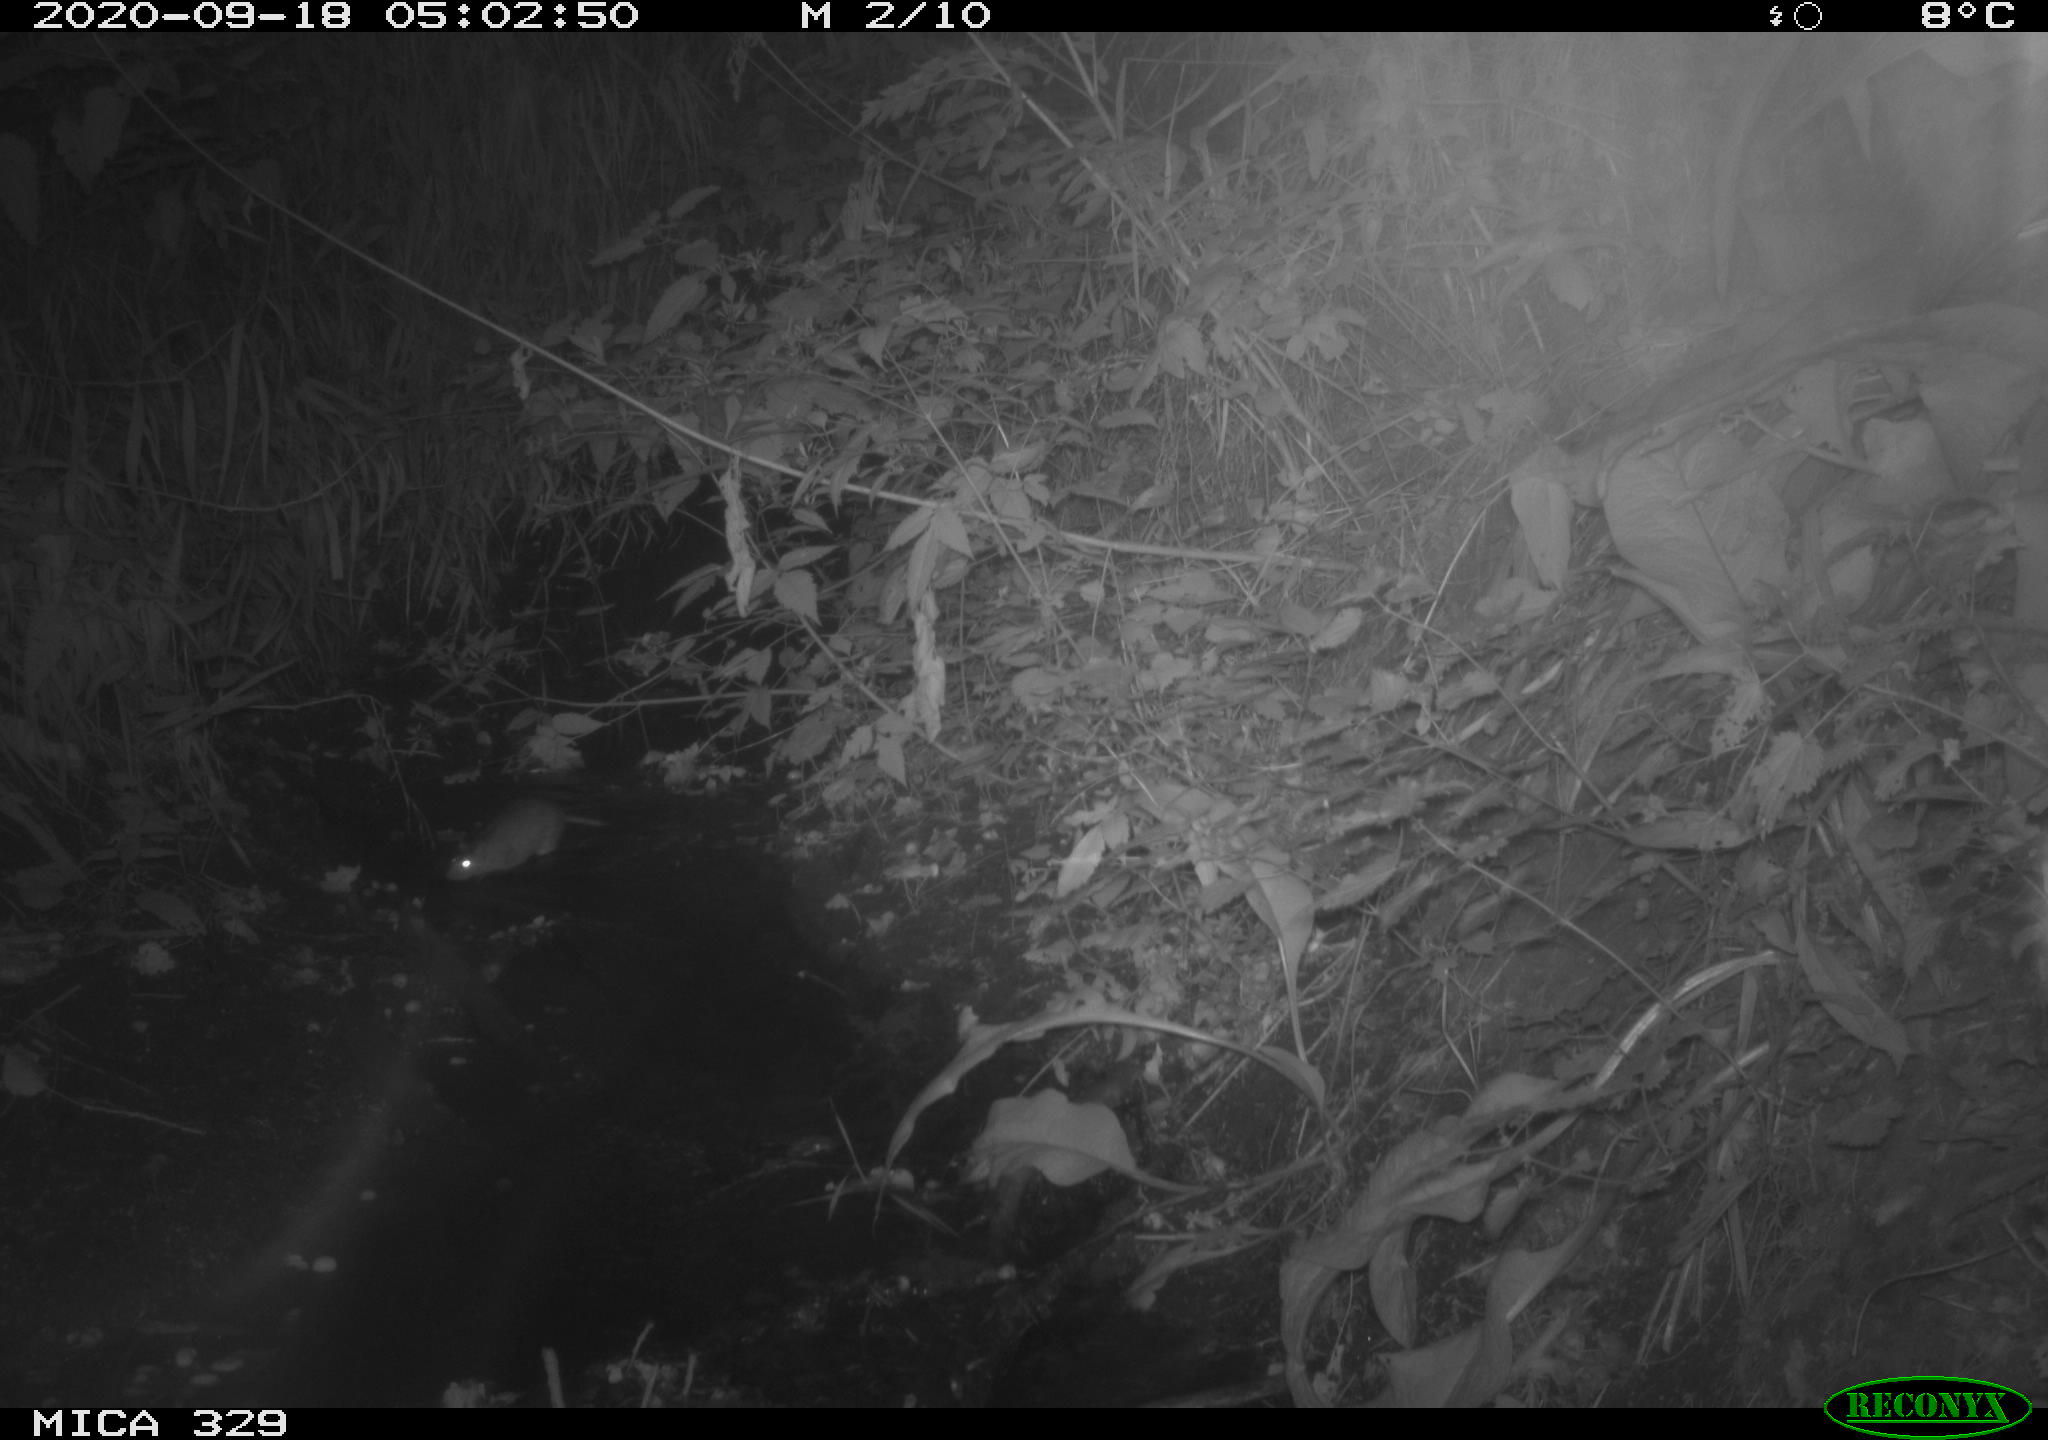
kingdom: Animalia
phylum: Chordata
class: Mammalia
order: Rodentia
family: Muridae
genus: Rattus
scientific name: Rattus norvegicus
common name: Brown rat
